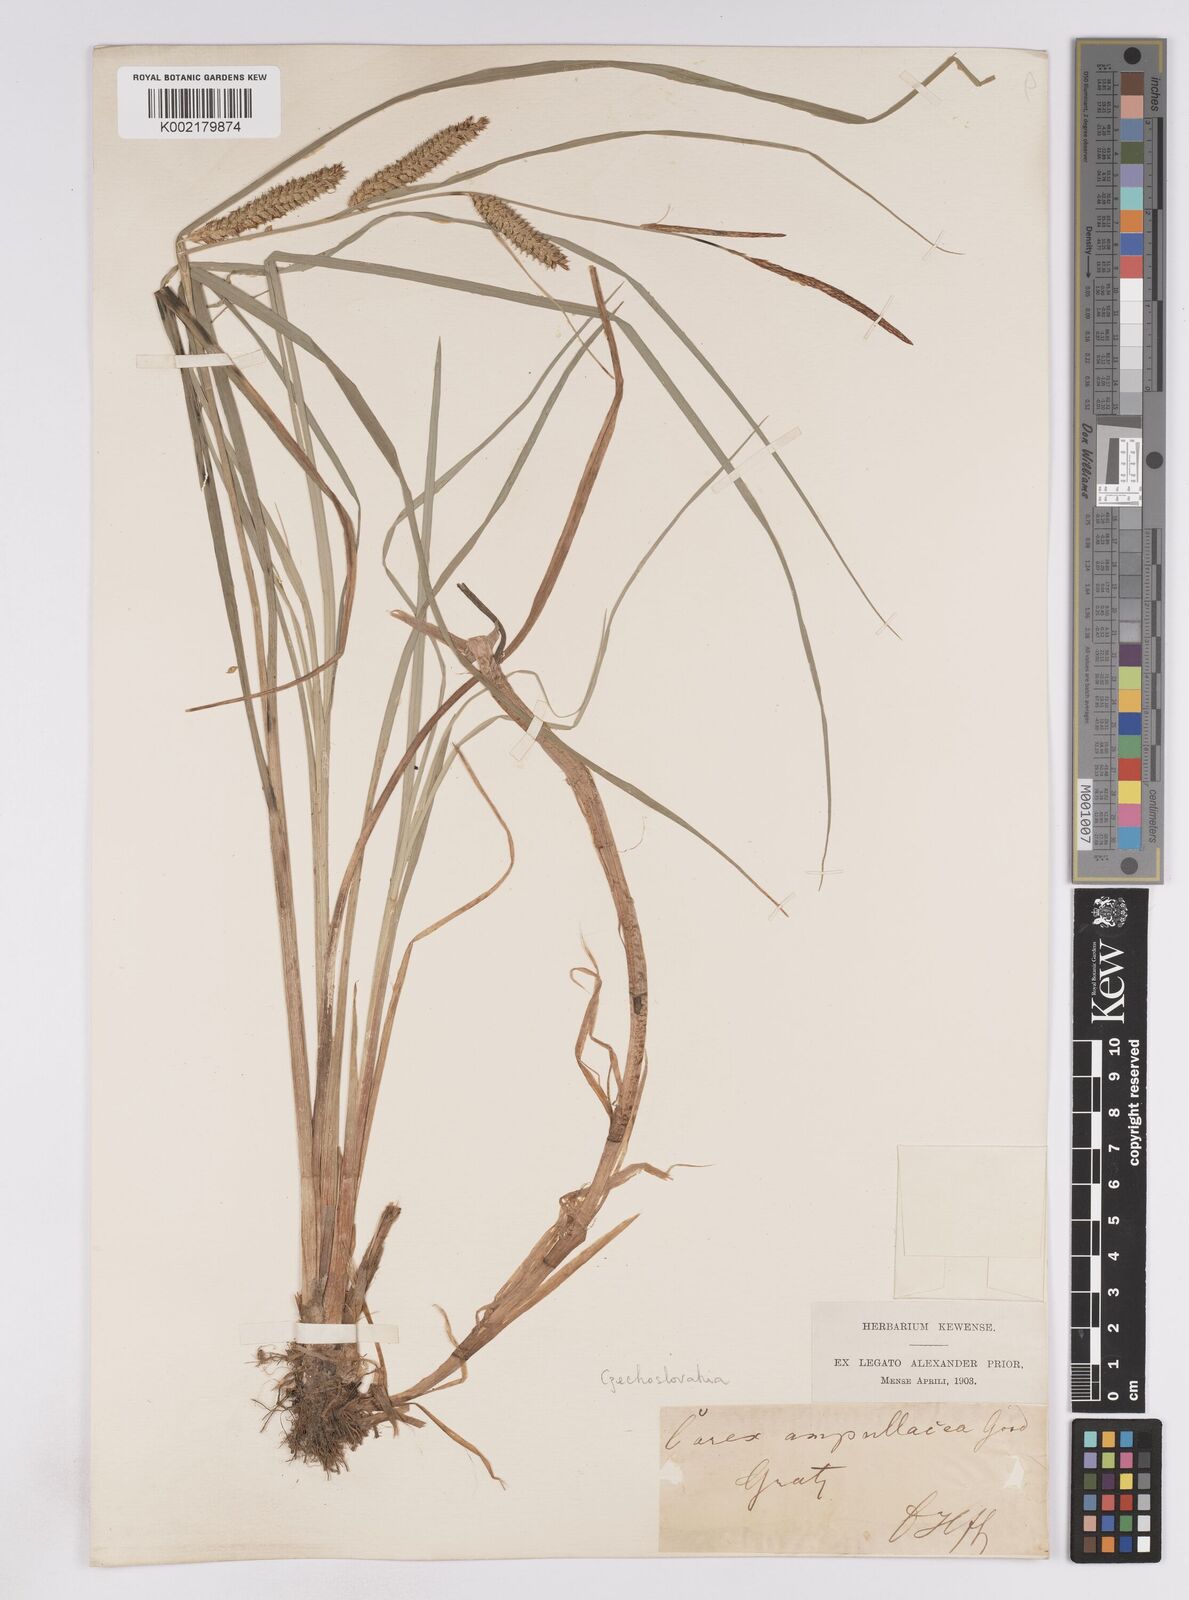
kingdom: Plantae
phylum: Tracheophyta
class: Liliopsida
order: Poales
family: Cyperaceae
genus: Carex
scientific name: Carex rostrata
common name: Bottle sedge
